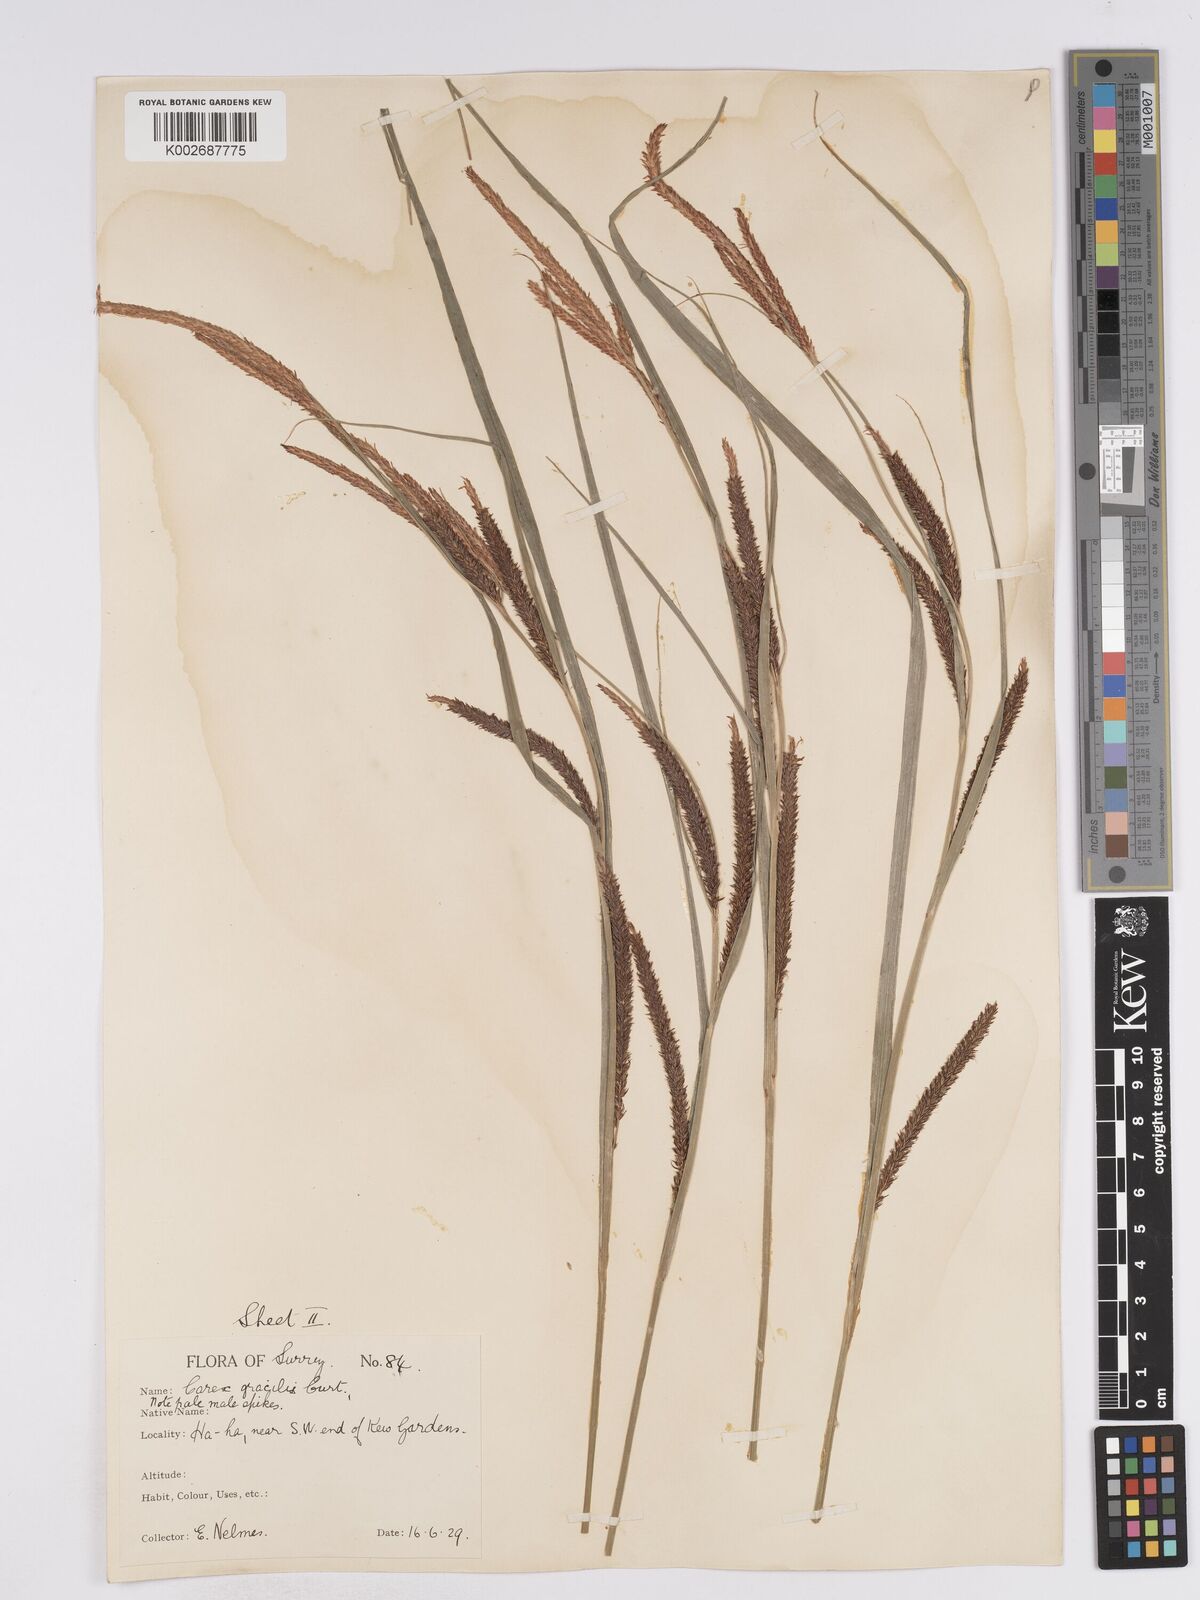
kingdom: Plantae
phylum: Tracheophyta
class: Liliopsida
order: Poales
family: Cyperaceae
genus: Carex
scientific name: Carex acuta
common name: Slender tufted-sedge
